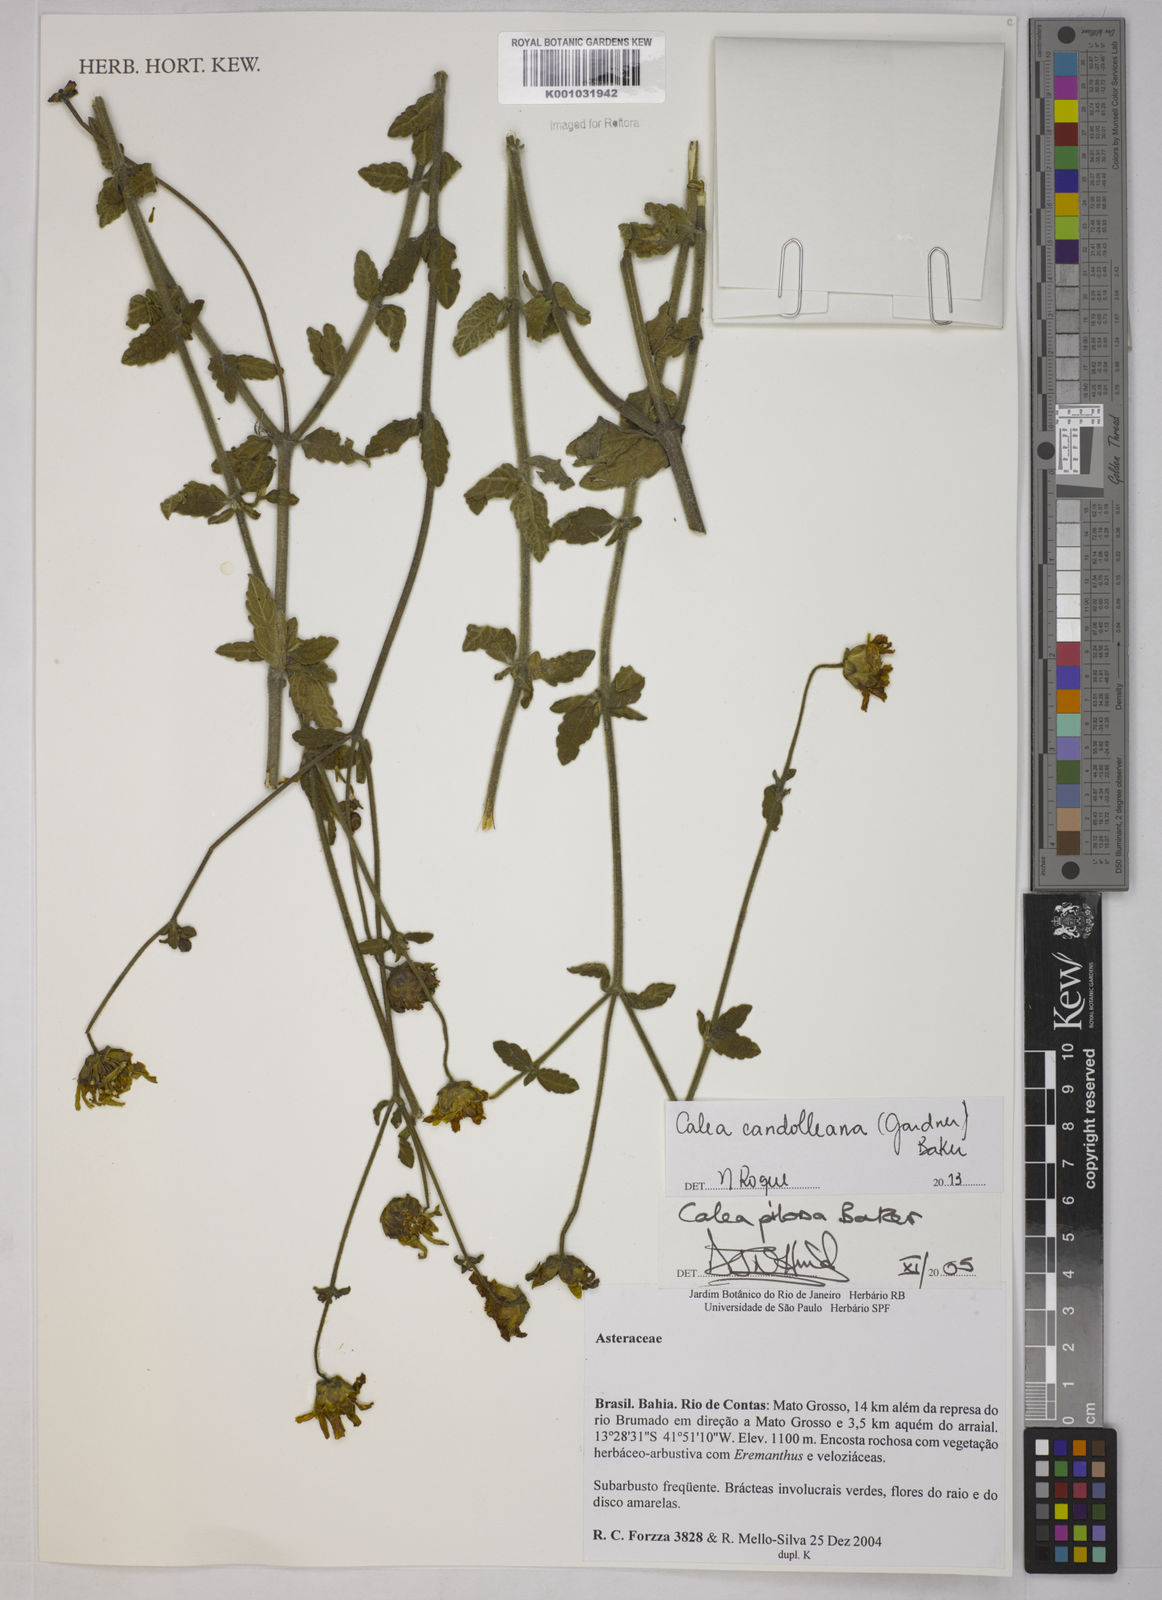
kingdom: Plantae
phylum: Tracheophyta
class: Magnoliopsida
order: Asterales
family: Asteraceae
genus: Calea
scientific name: Calea candolleana
